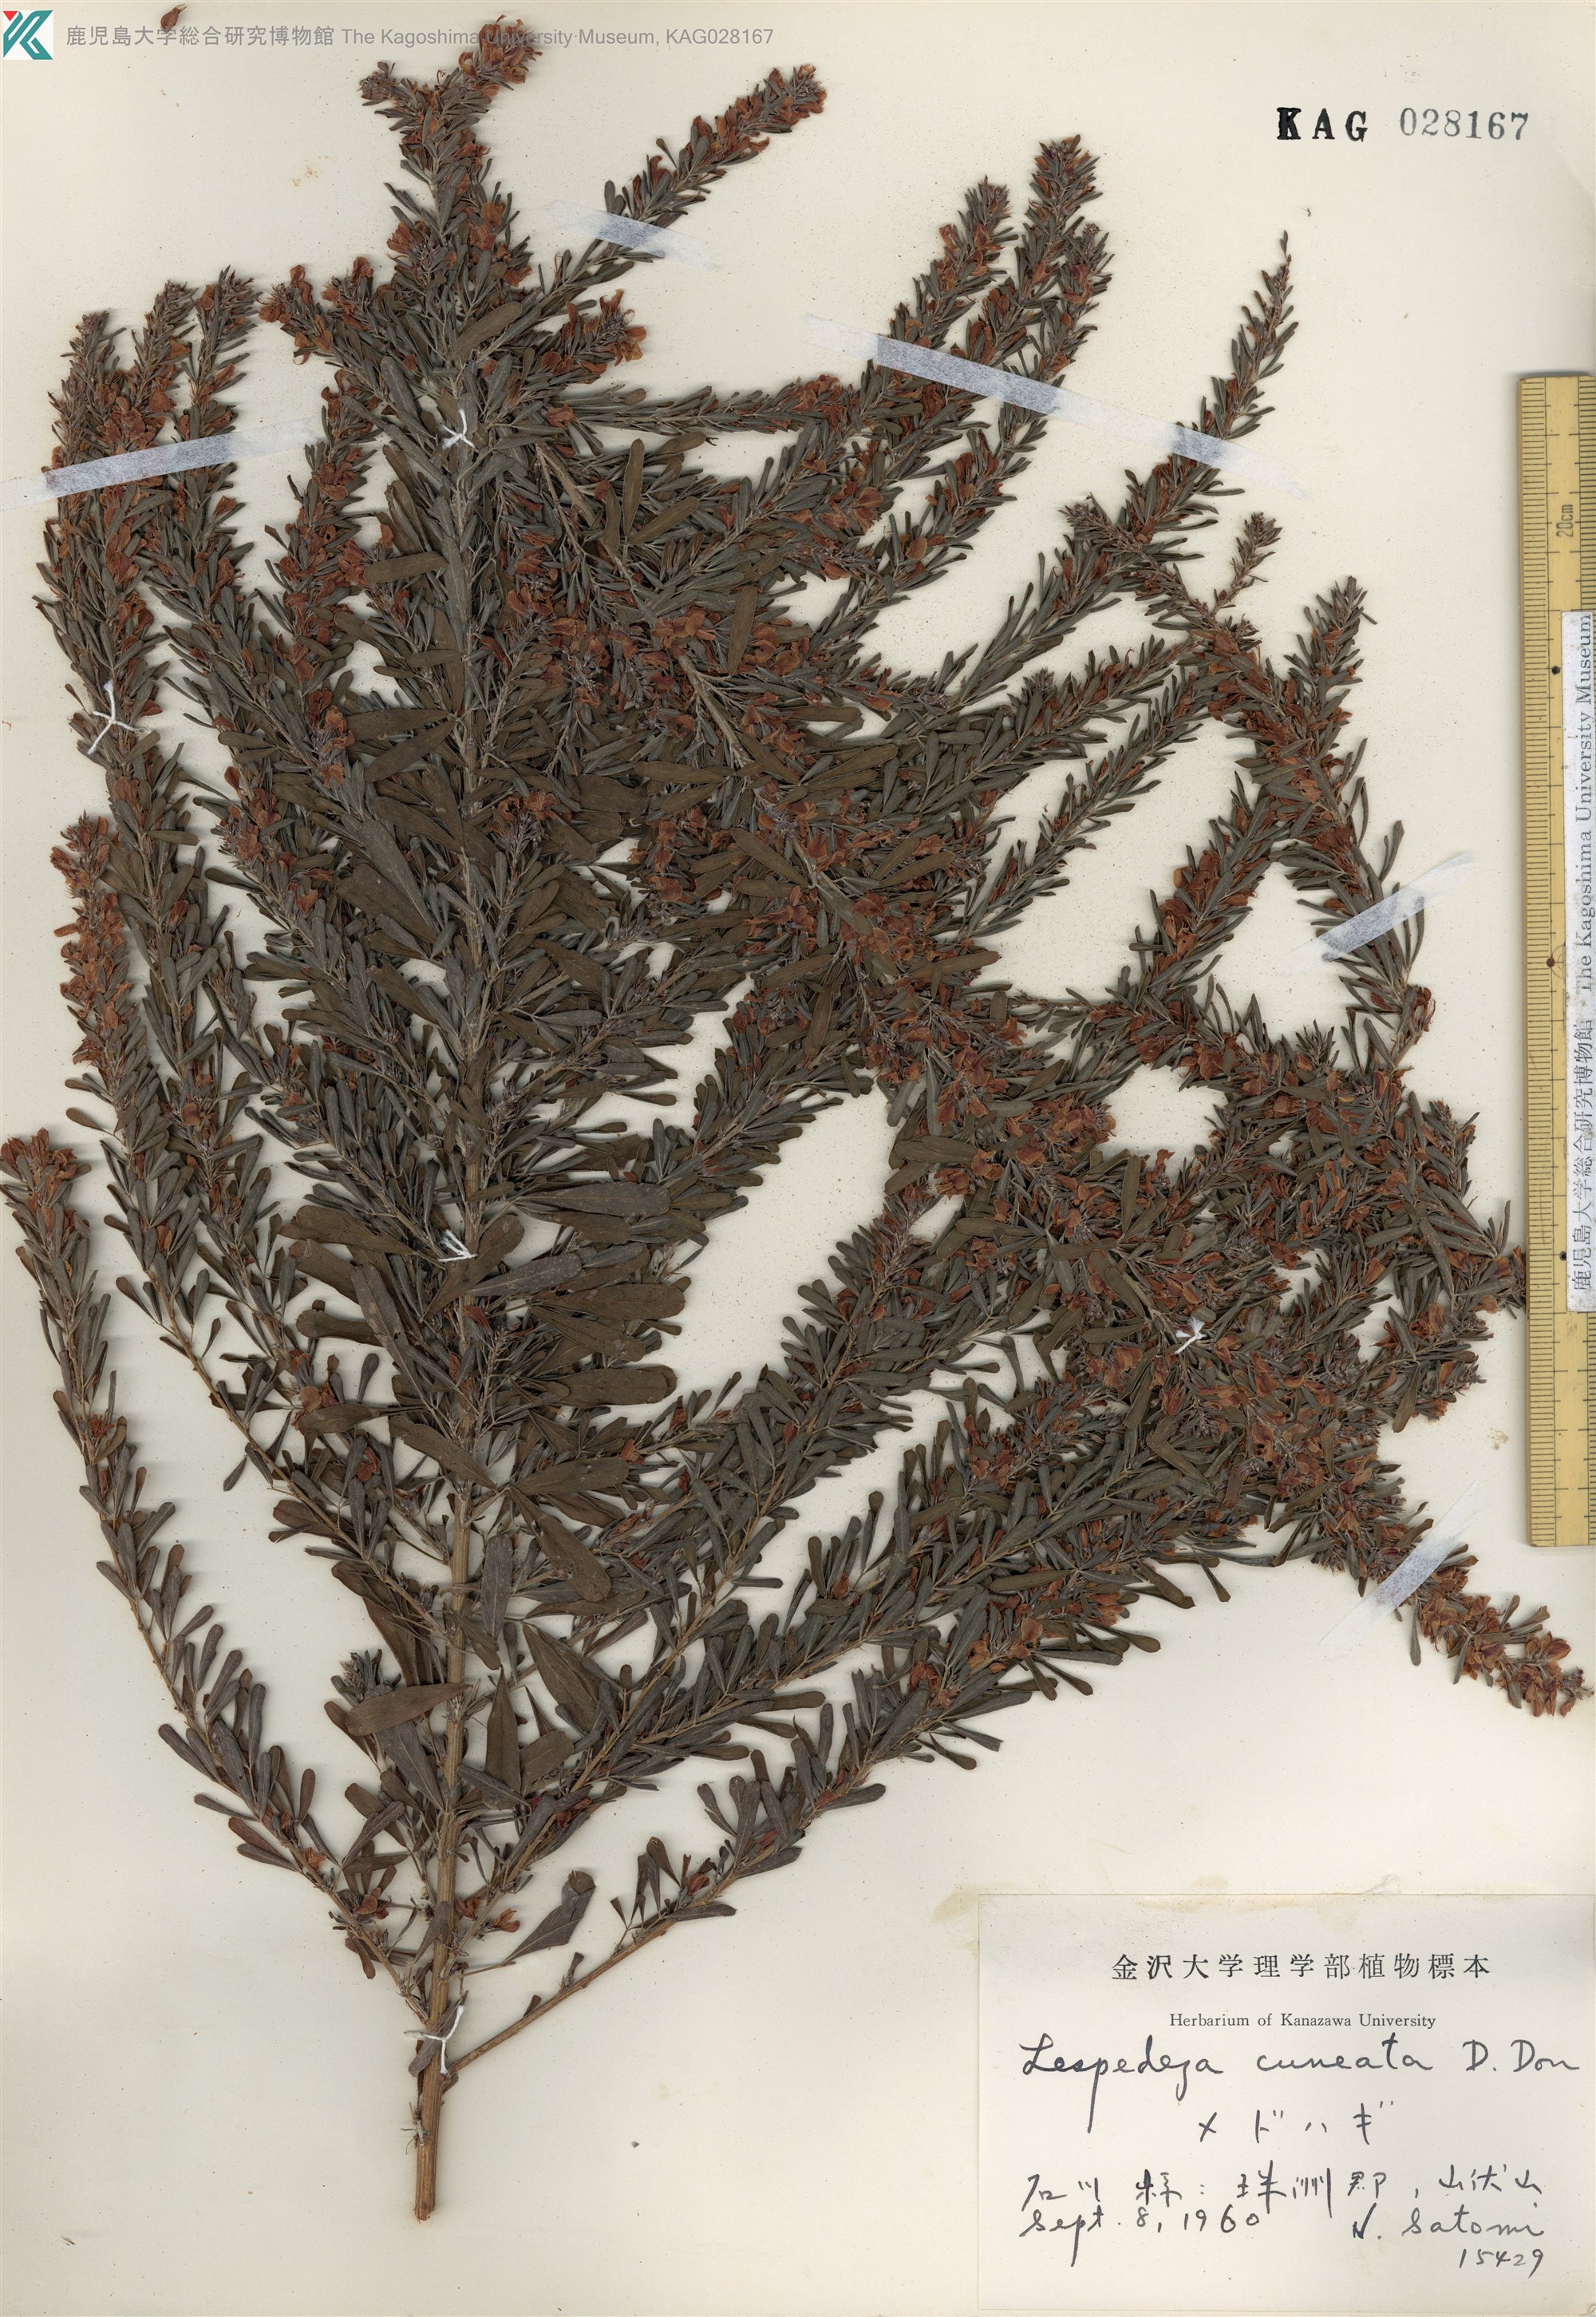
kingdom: Plantae
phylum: Tracheophyta
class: Magnoliopsida
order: Fabales
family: Fabaceae
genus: Lespedeza
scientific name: Lespedeza cuneata
